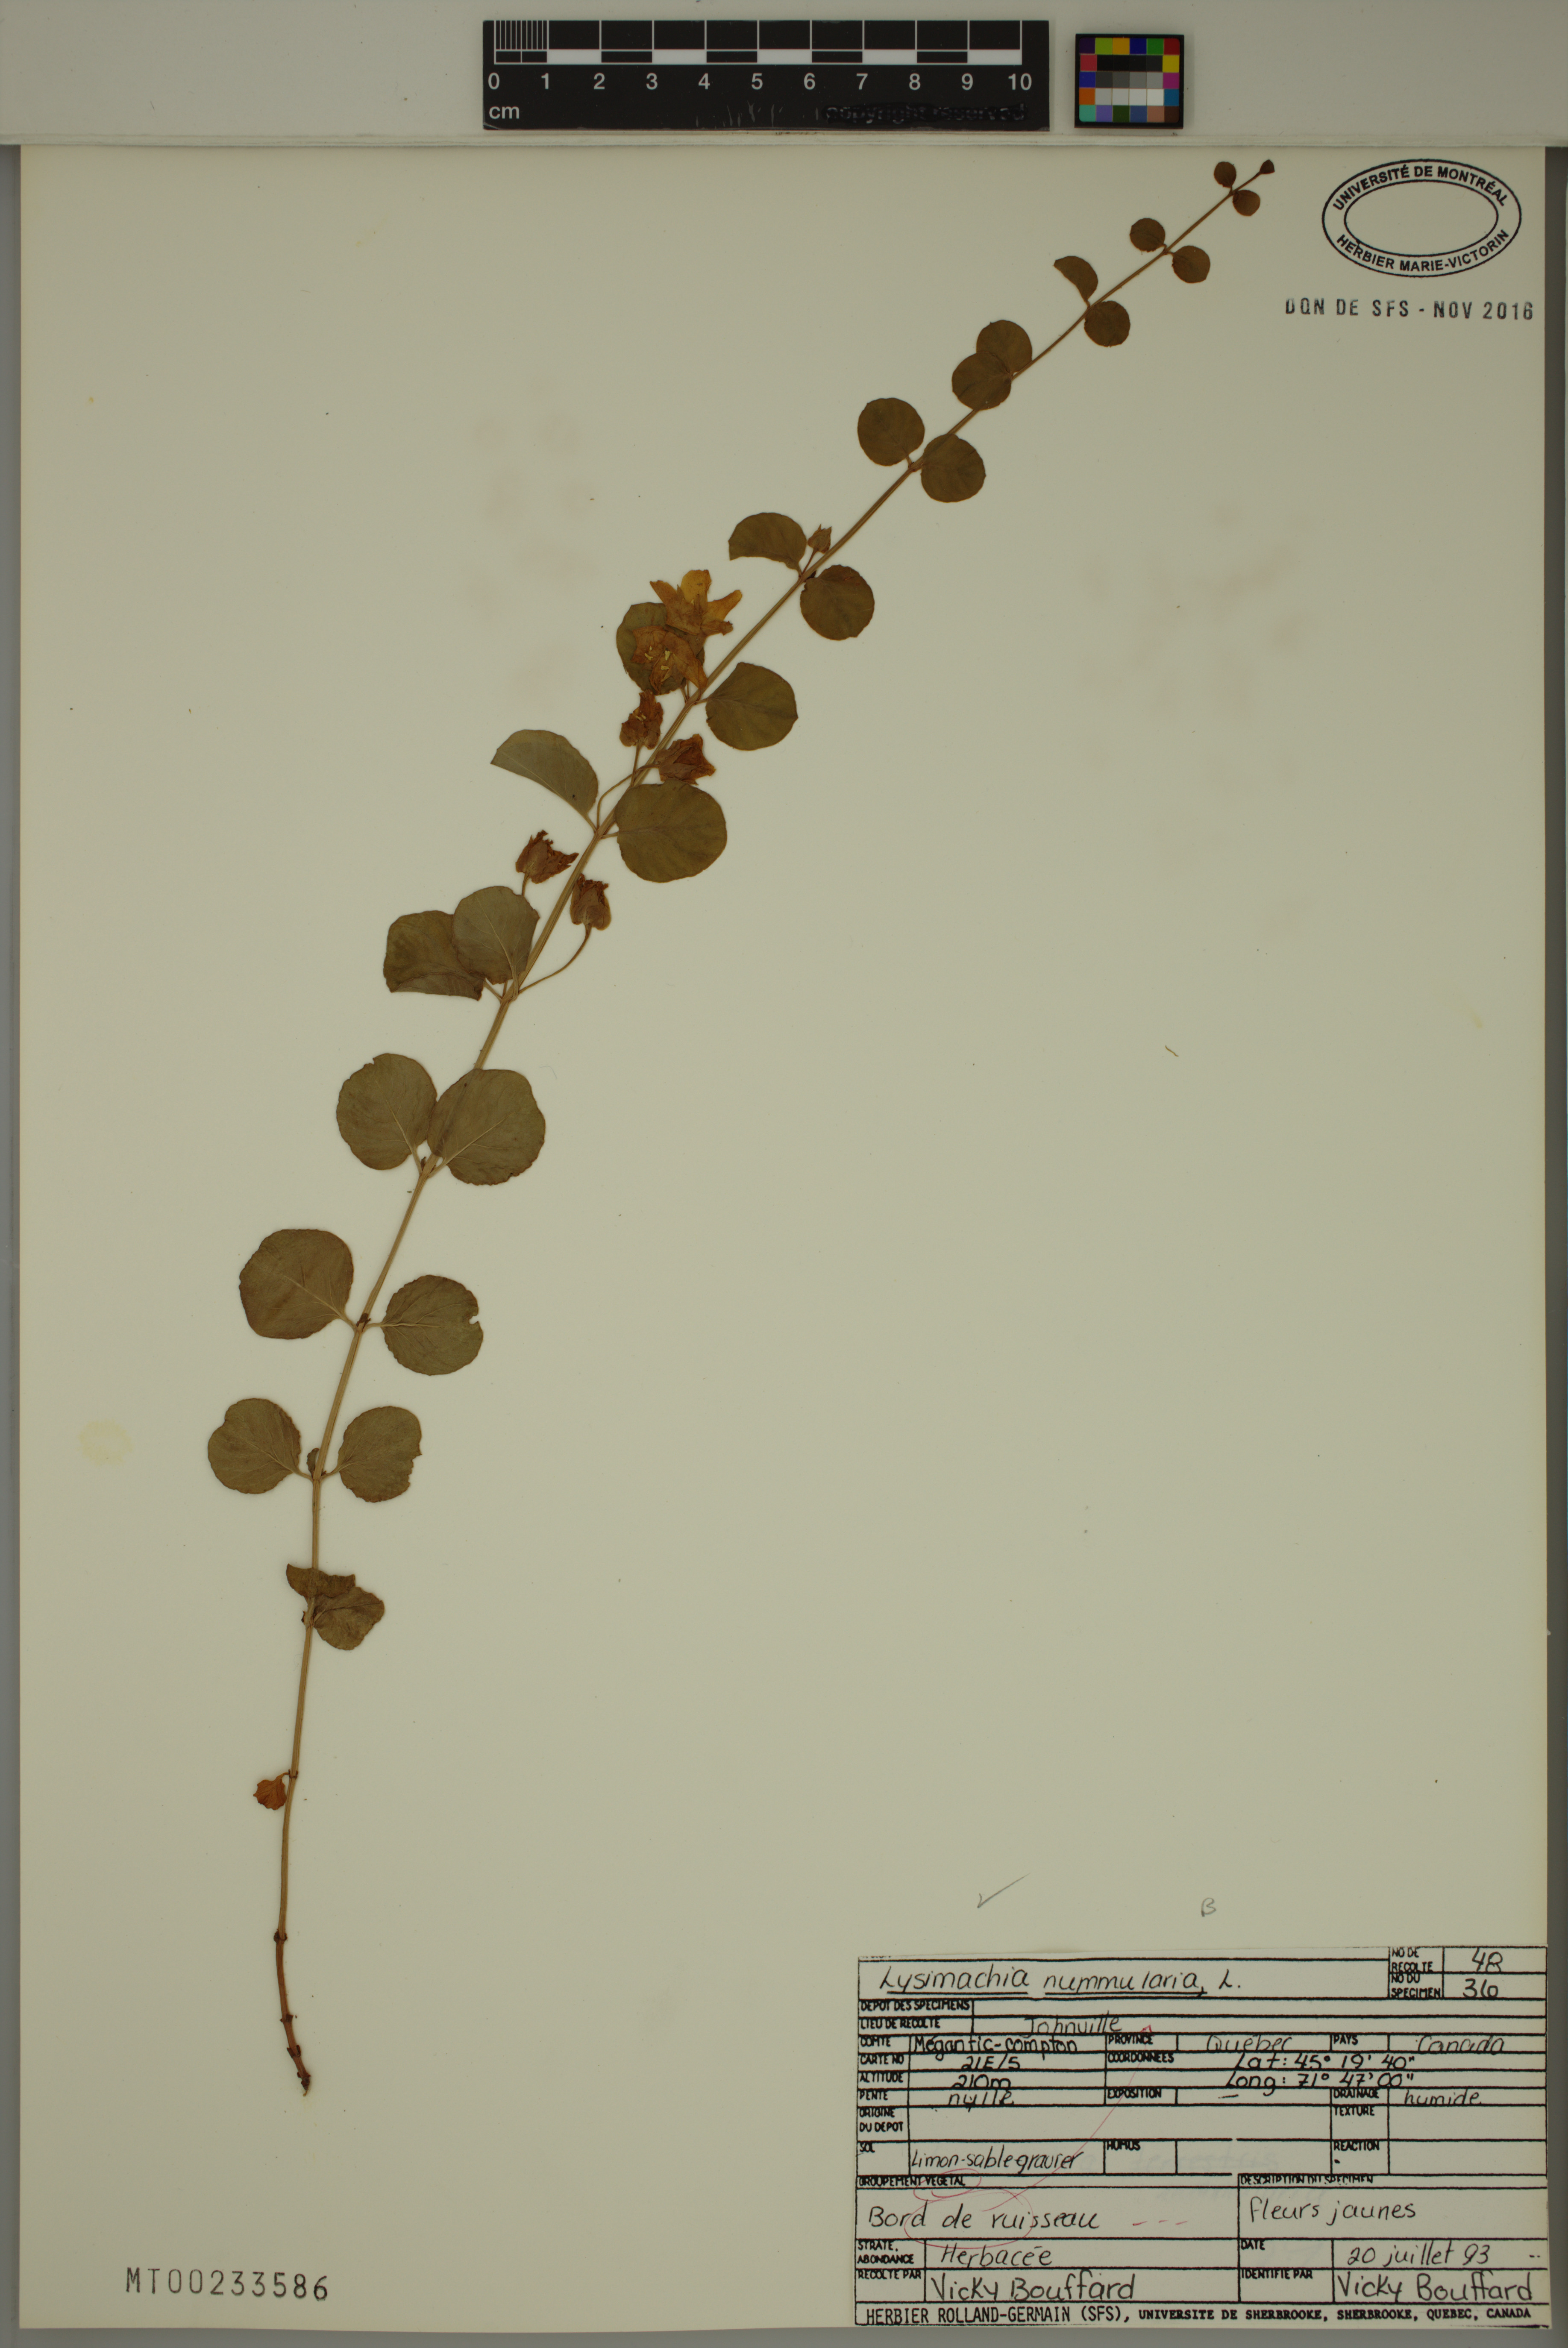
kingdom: Plantae
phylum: Tracheophyta
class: Magnoliopsida
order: Ericales
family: Primulaceae
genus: Lysimachia
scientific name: Lysimachia nummularia
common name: Moneywort
